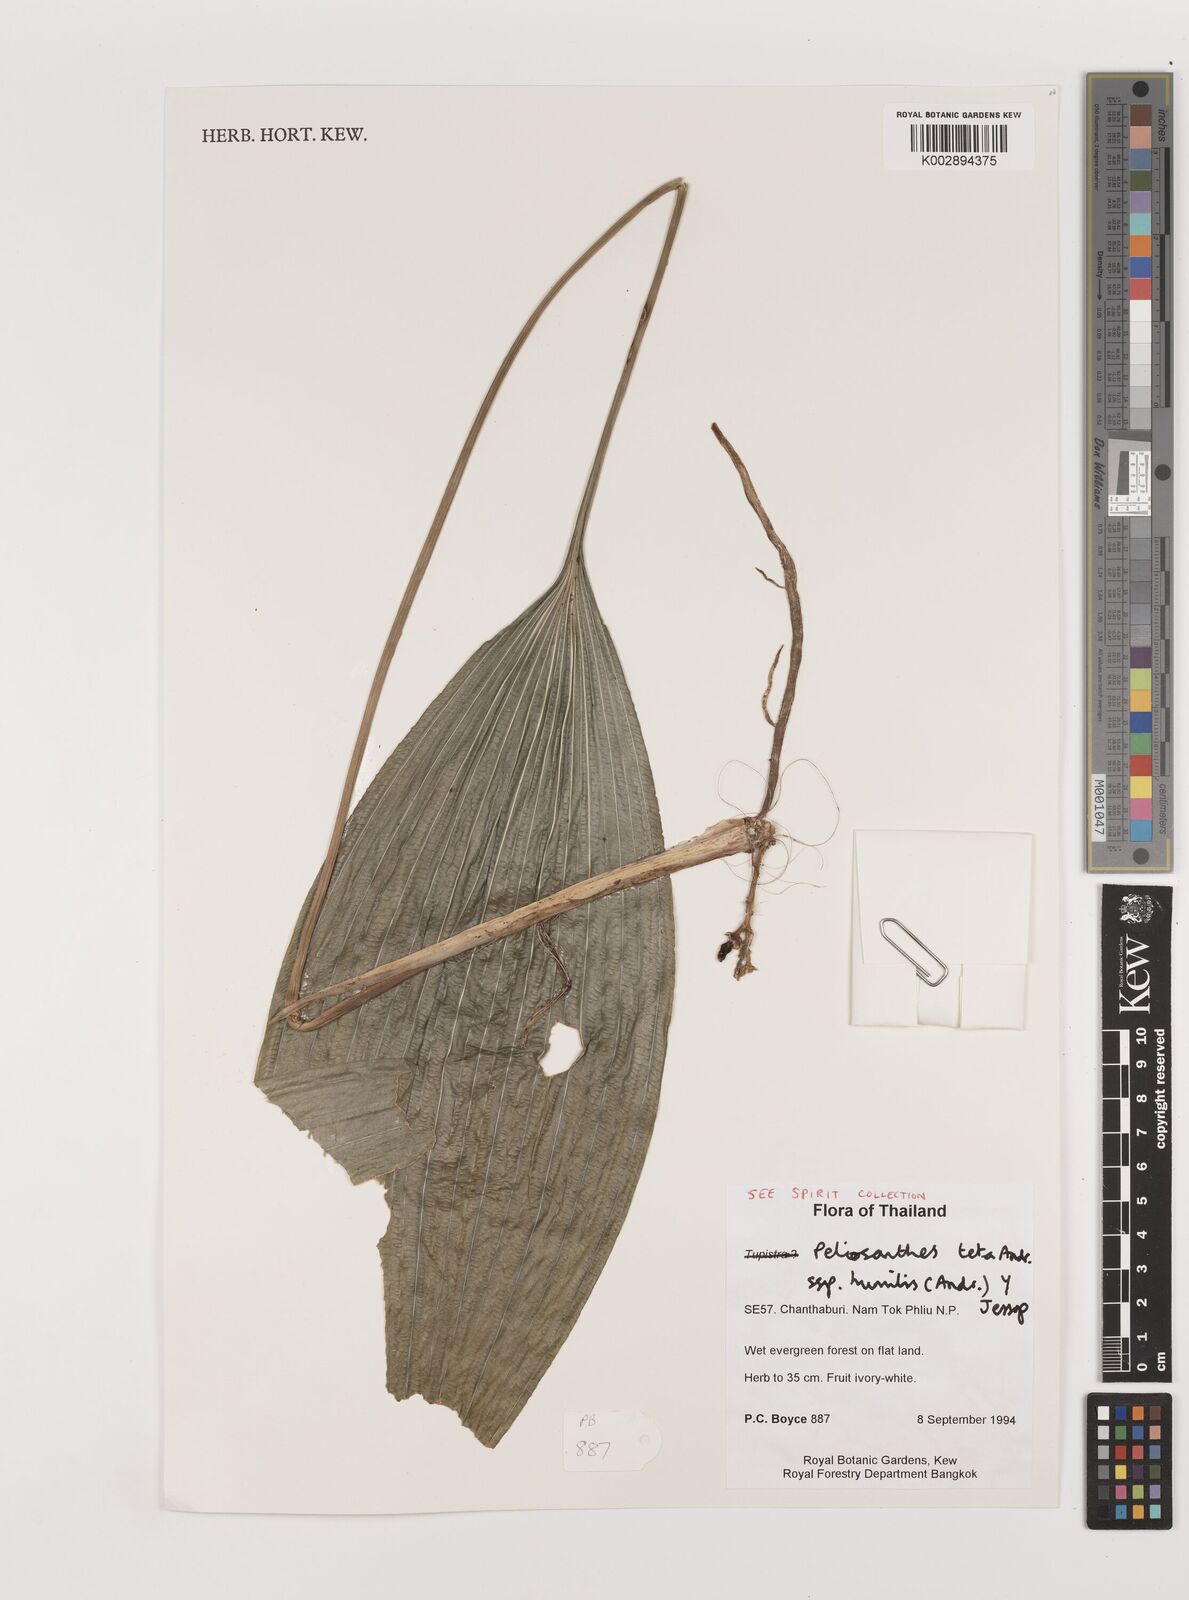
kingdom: Plantae
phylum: Tracheophyta
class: Liliopsida
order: Asparagales
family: Asparagaceae
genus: Peliosanthes
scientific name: Peliosanthes teta
